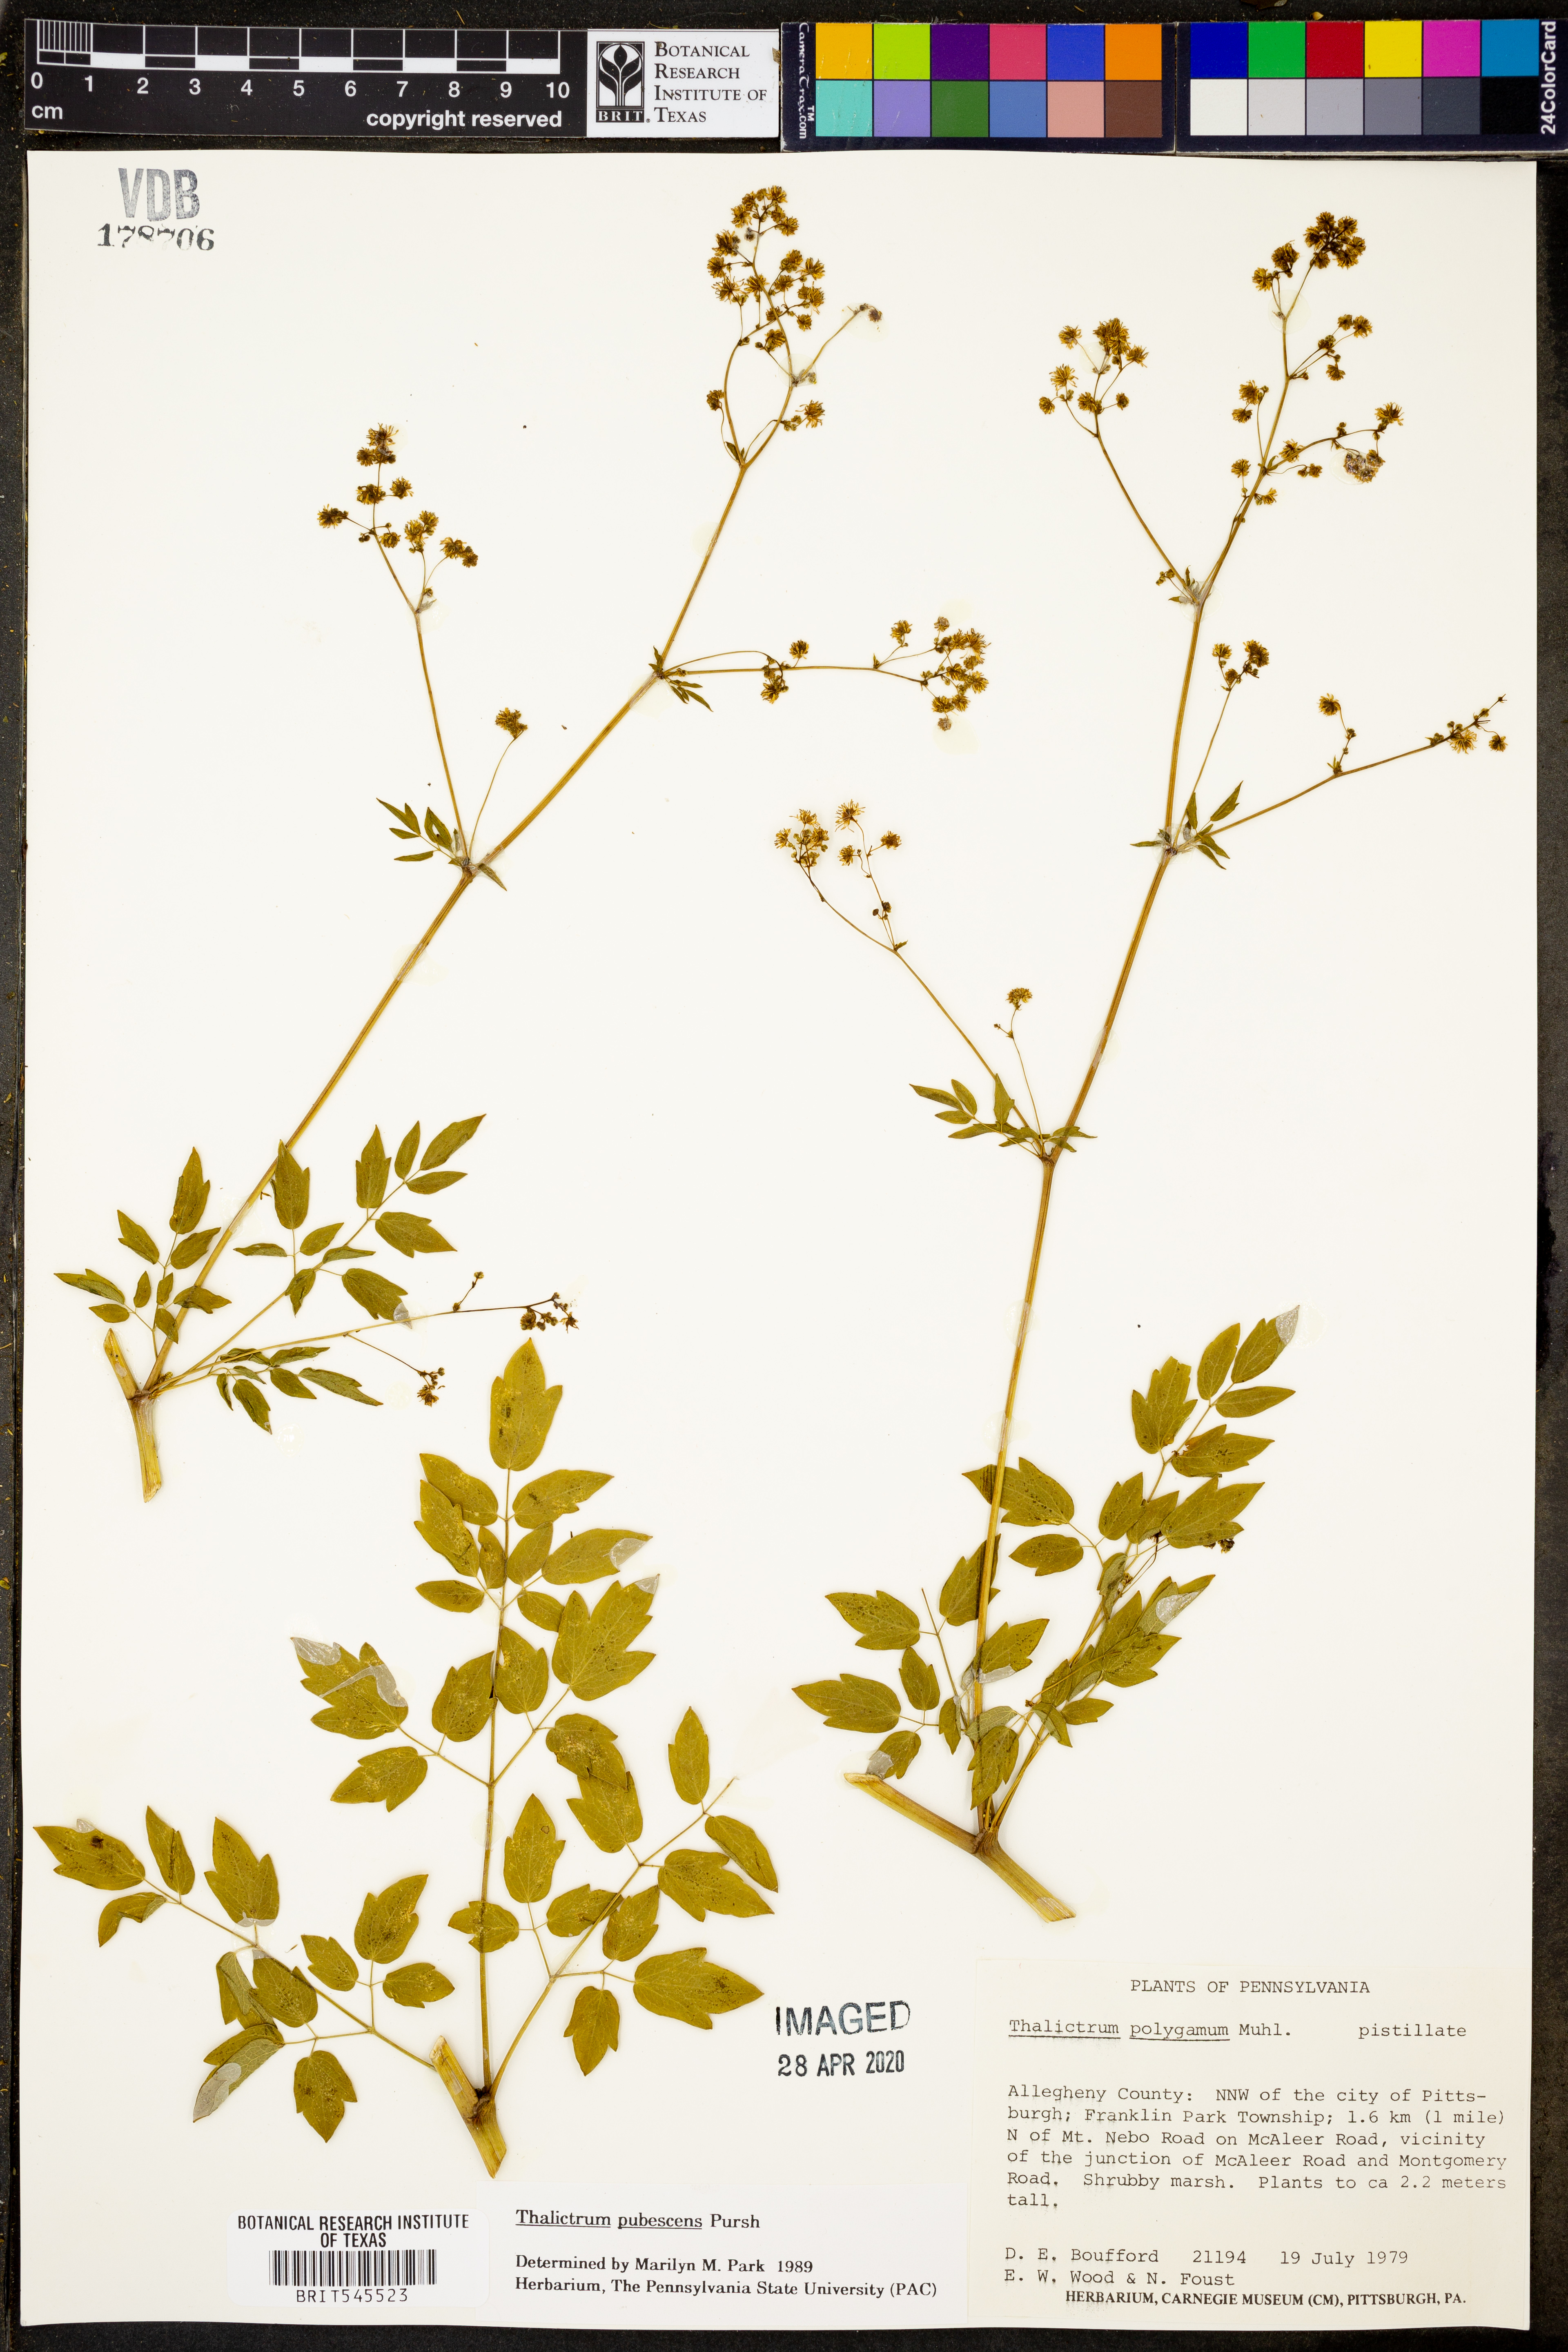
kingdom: Plantae
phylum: Tracheophyta
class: Magnoliopsida
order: Ranunculales
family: Ranunculaceae
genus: Thalictrum
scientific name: Thalictrum pubescens
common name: King-of-the-meadow
